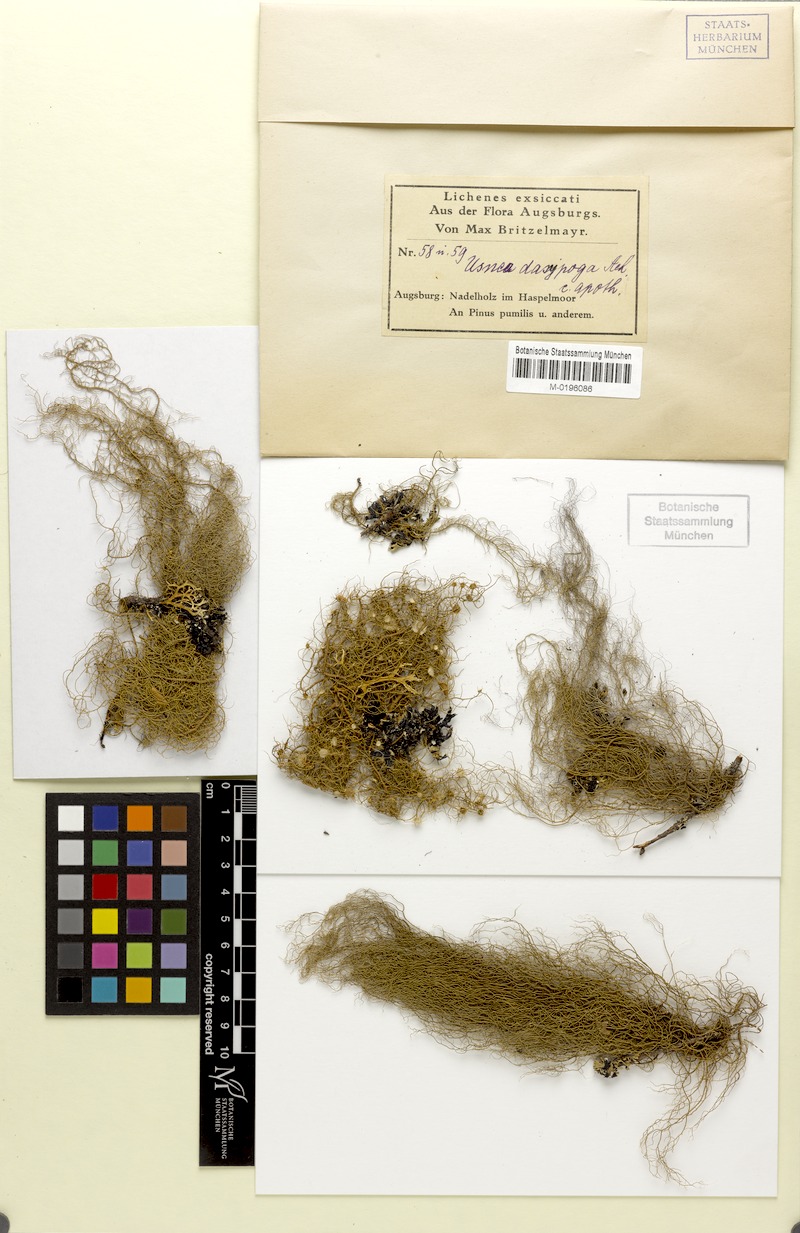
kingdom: Fungi
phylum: Ascomycota
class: Lecanoromycetes
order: Lecanorales
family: Parmeliaceae
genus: Usnea
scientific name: Usnea dasopoga
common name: Fishbone beard lichen
